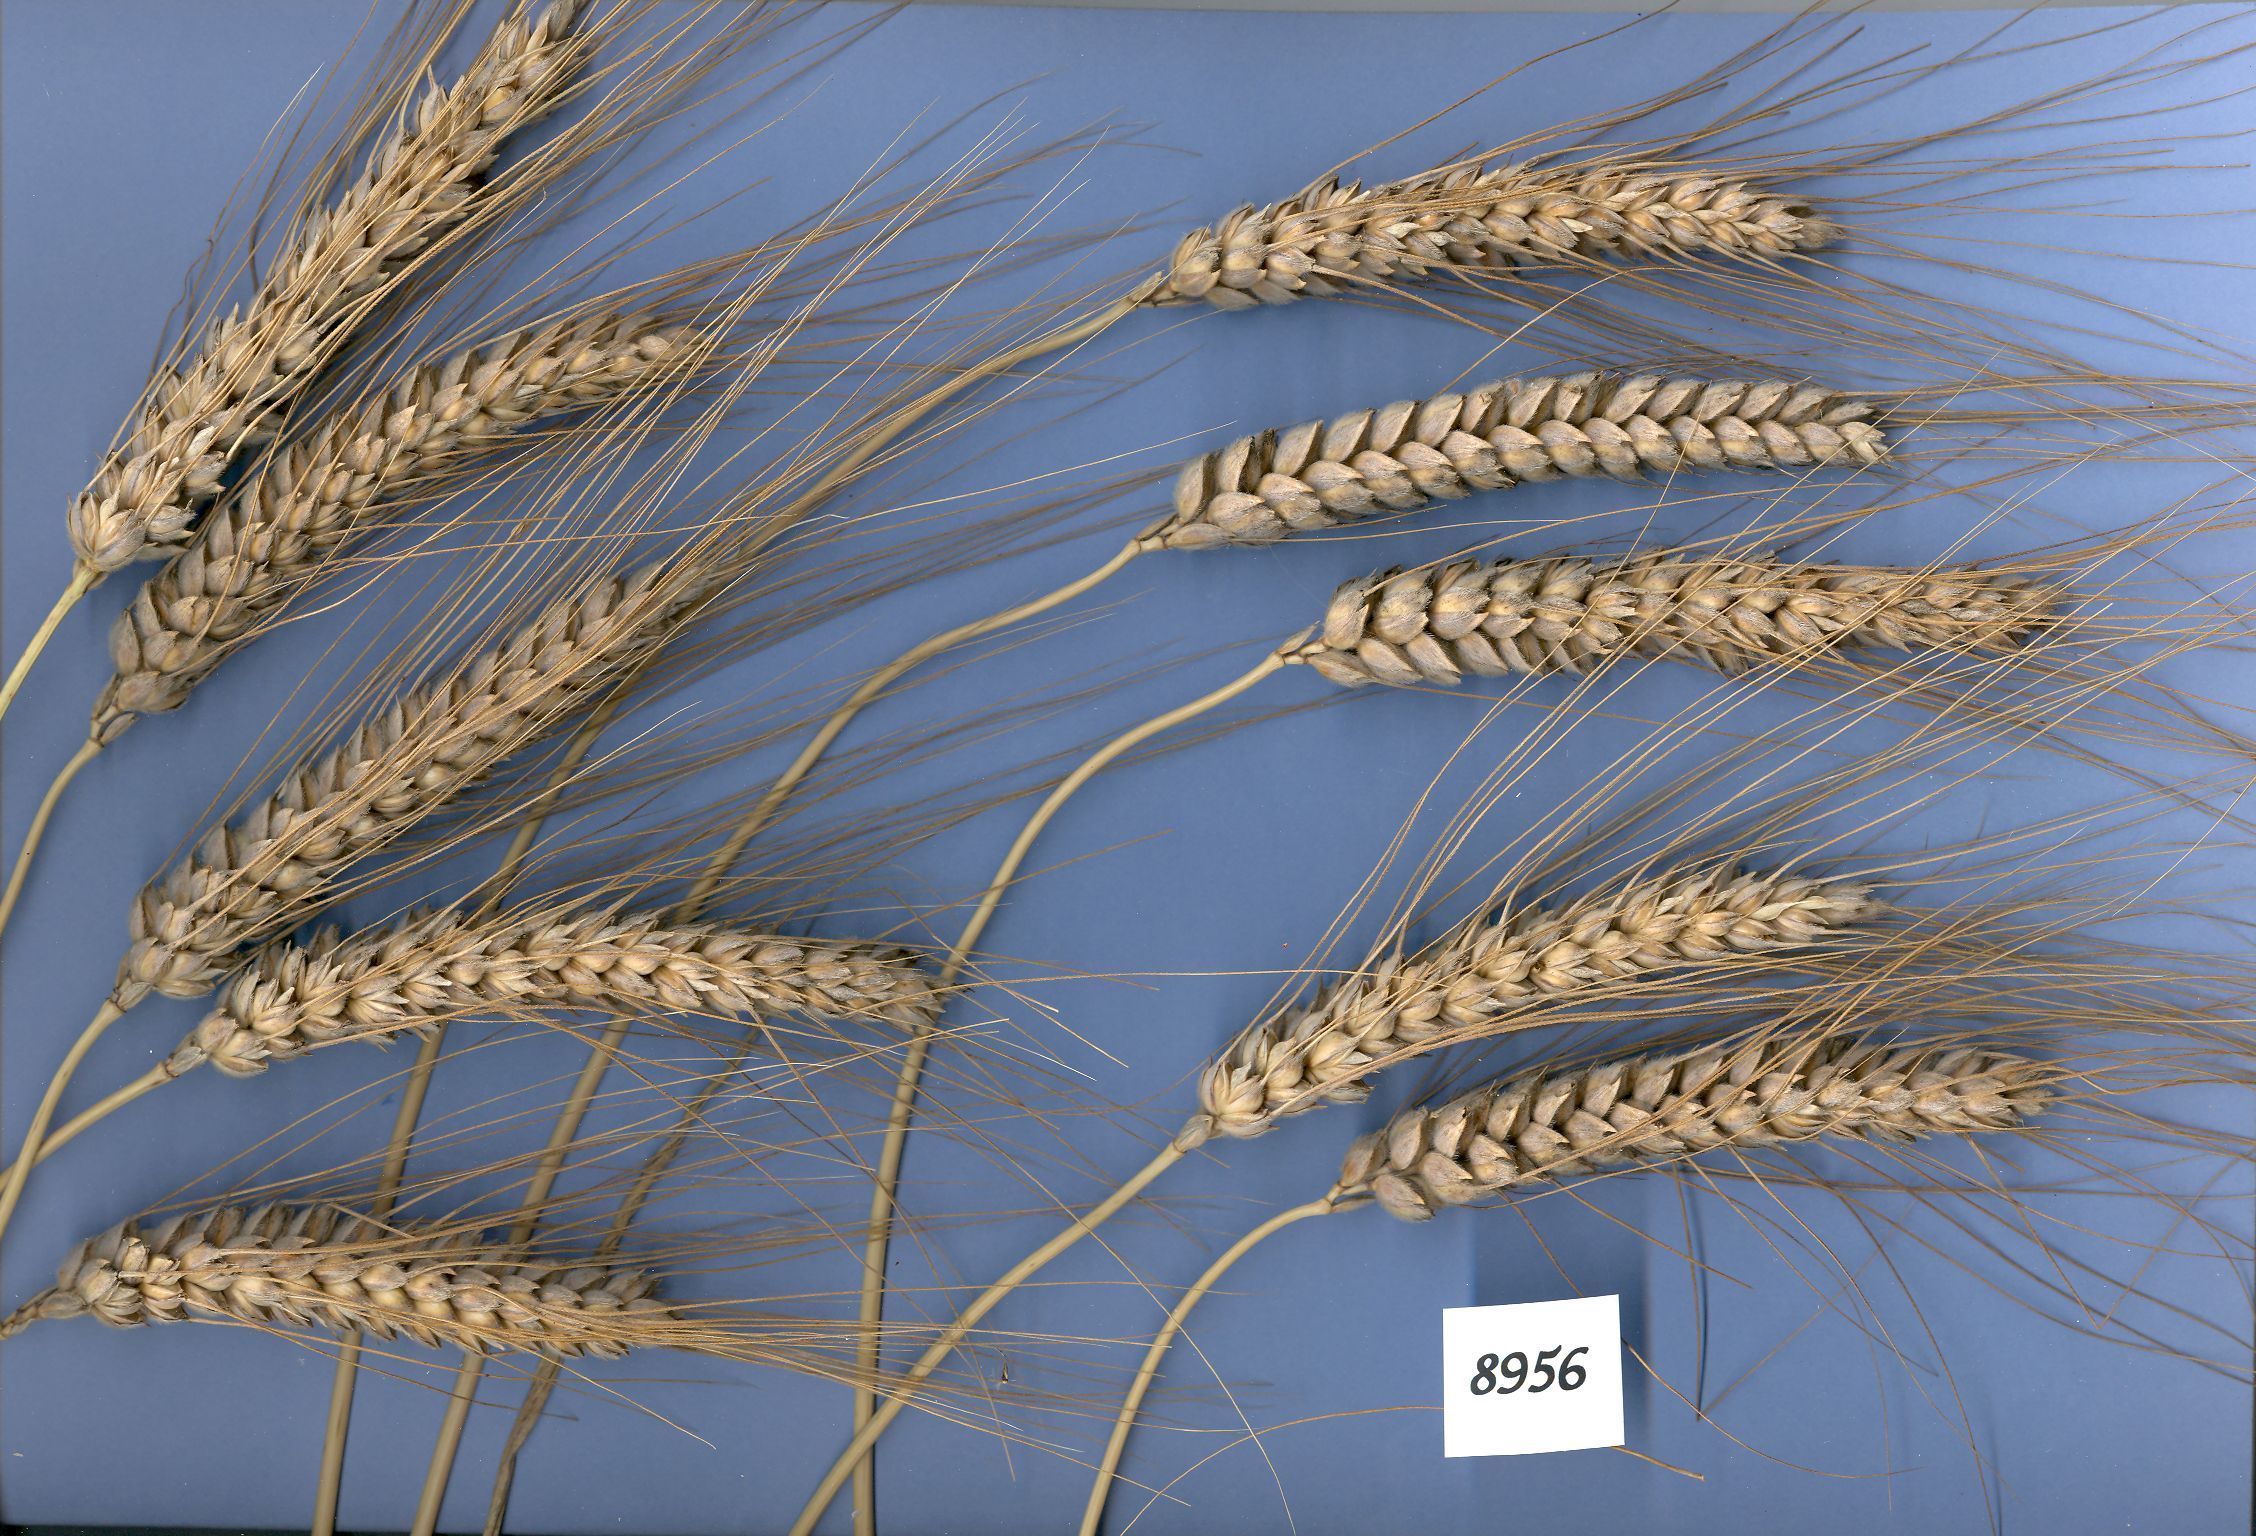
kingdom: Plantae
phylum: Tracheophyta
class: Liliopsida
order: Poales
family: Poaceae
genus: Triticum
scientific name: Triticum aestivum
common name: Common wheat
